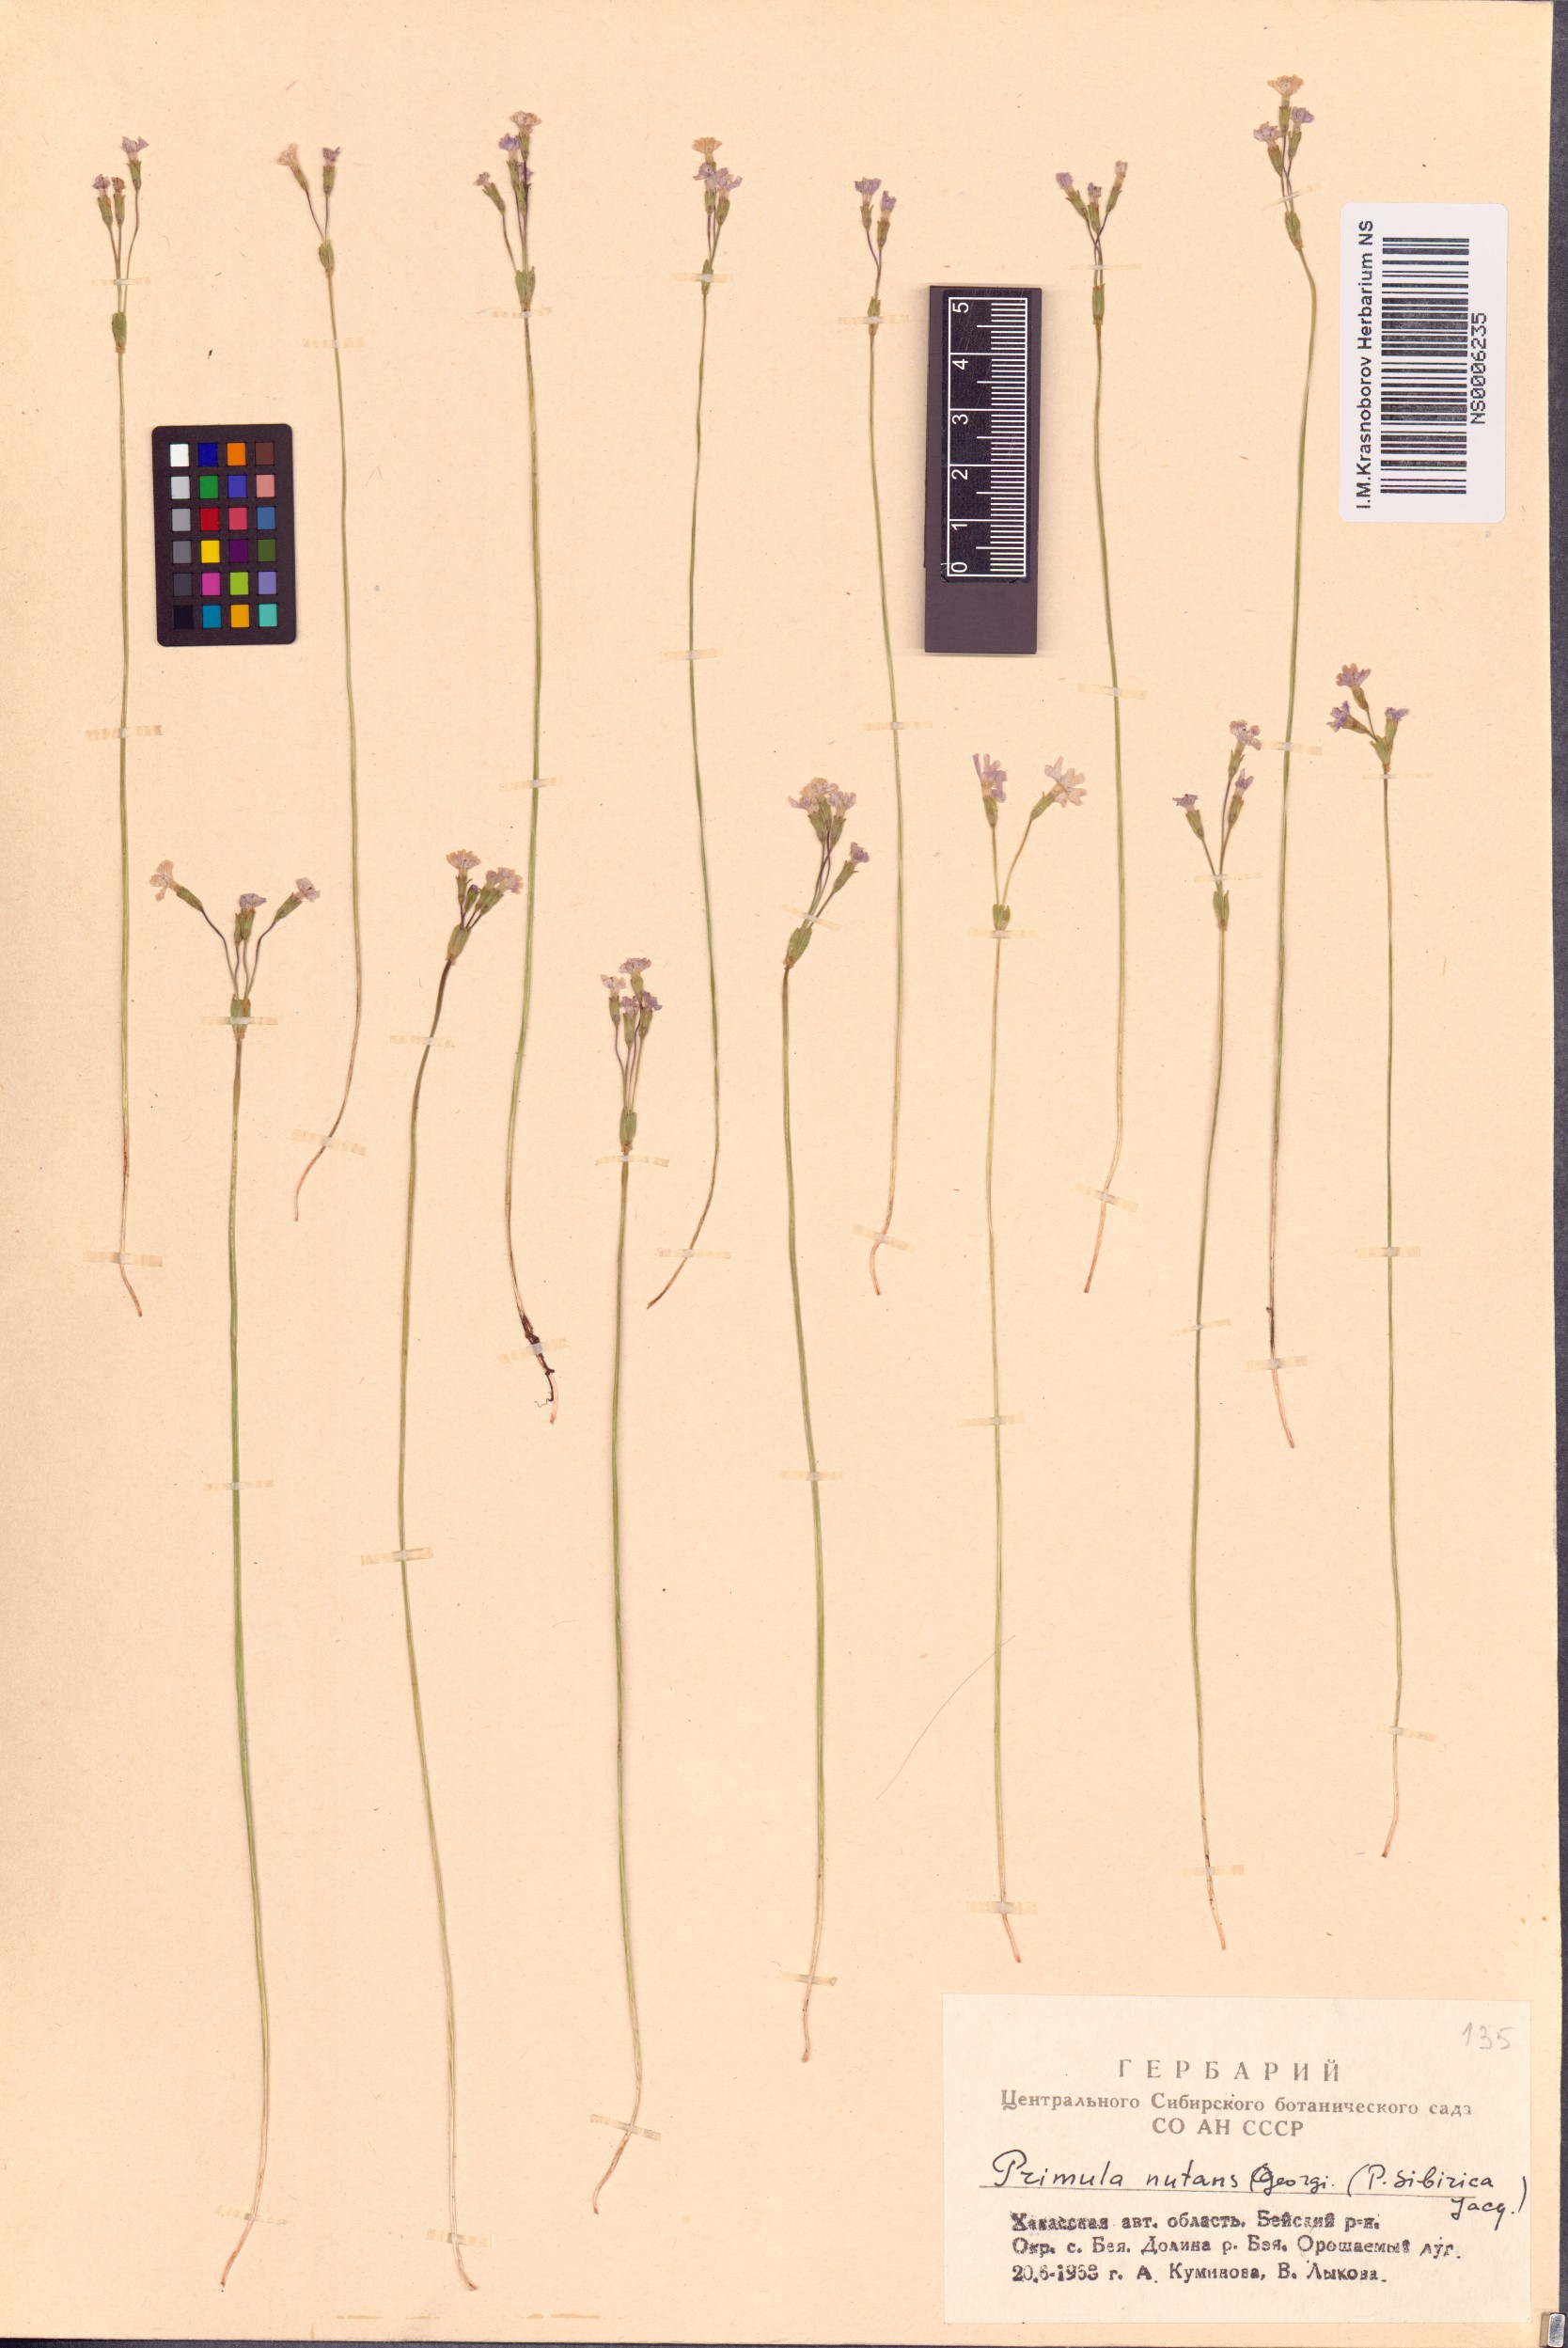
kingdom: Plantae
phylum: Tracheophyta
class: Magnoliopsida
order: Ericales
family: Primulaceae
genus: Primula
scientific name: Primula nutans
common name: Siberian primrose
